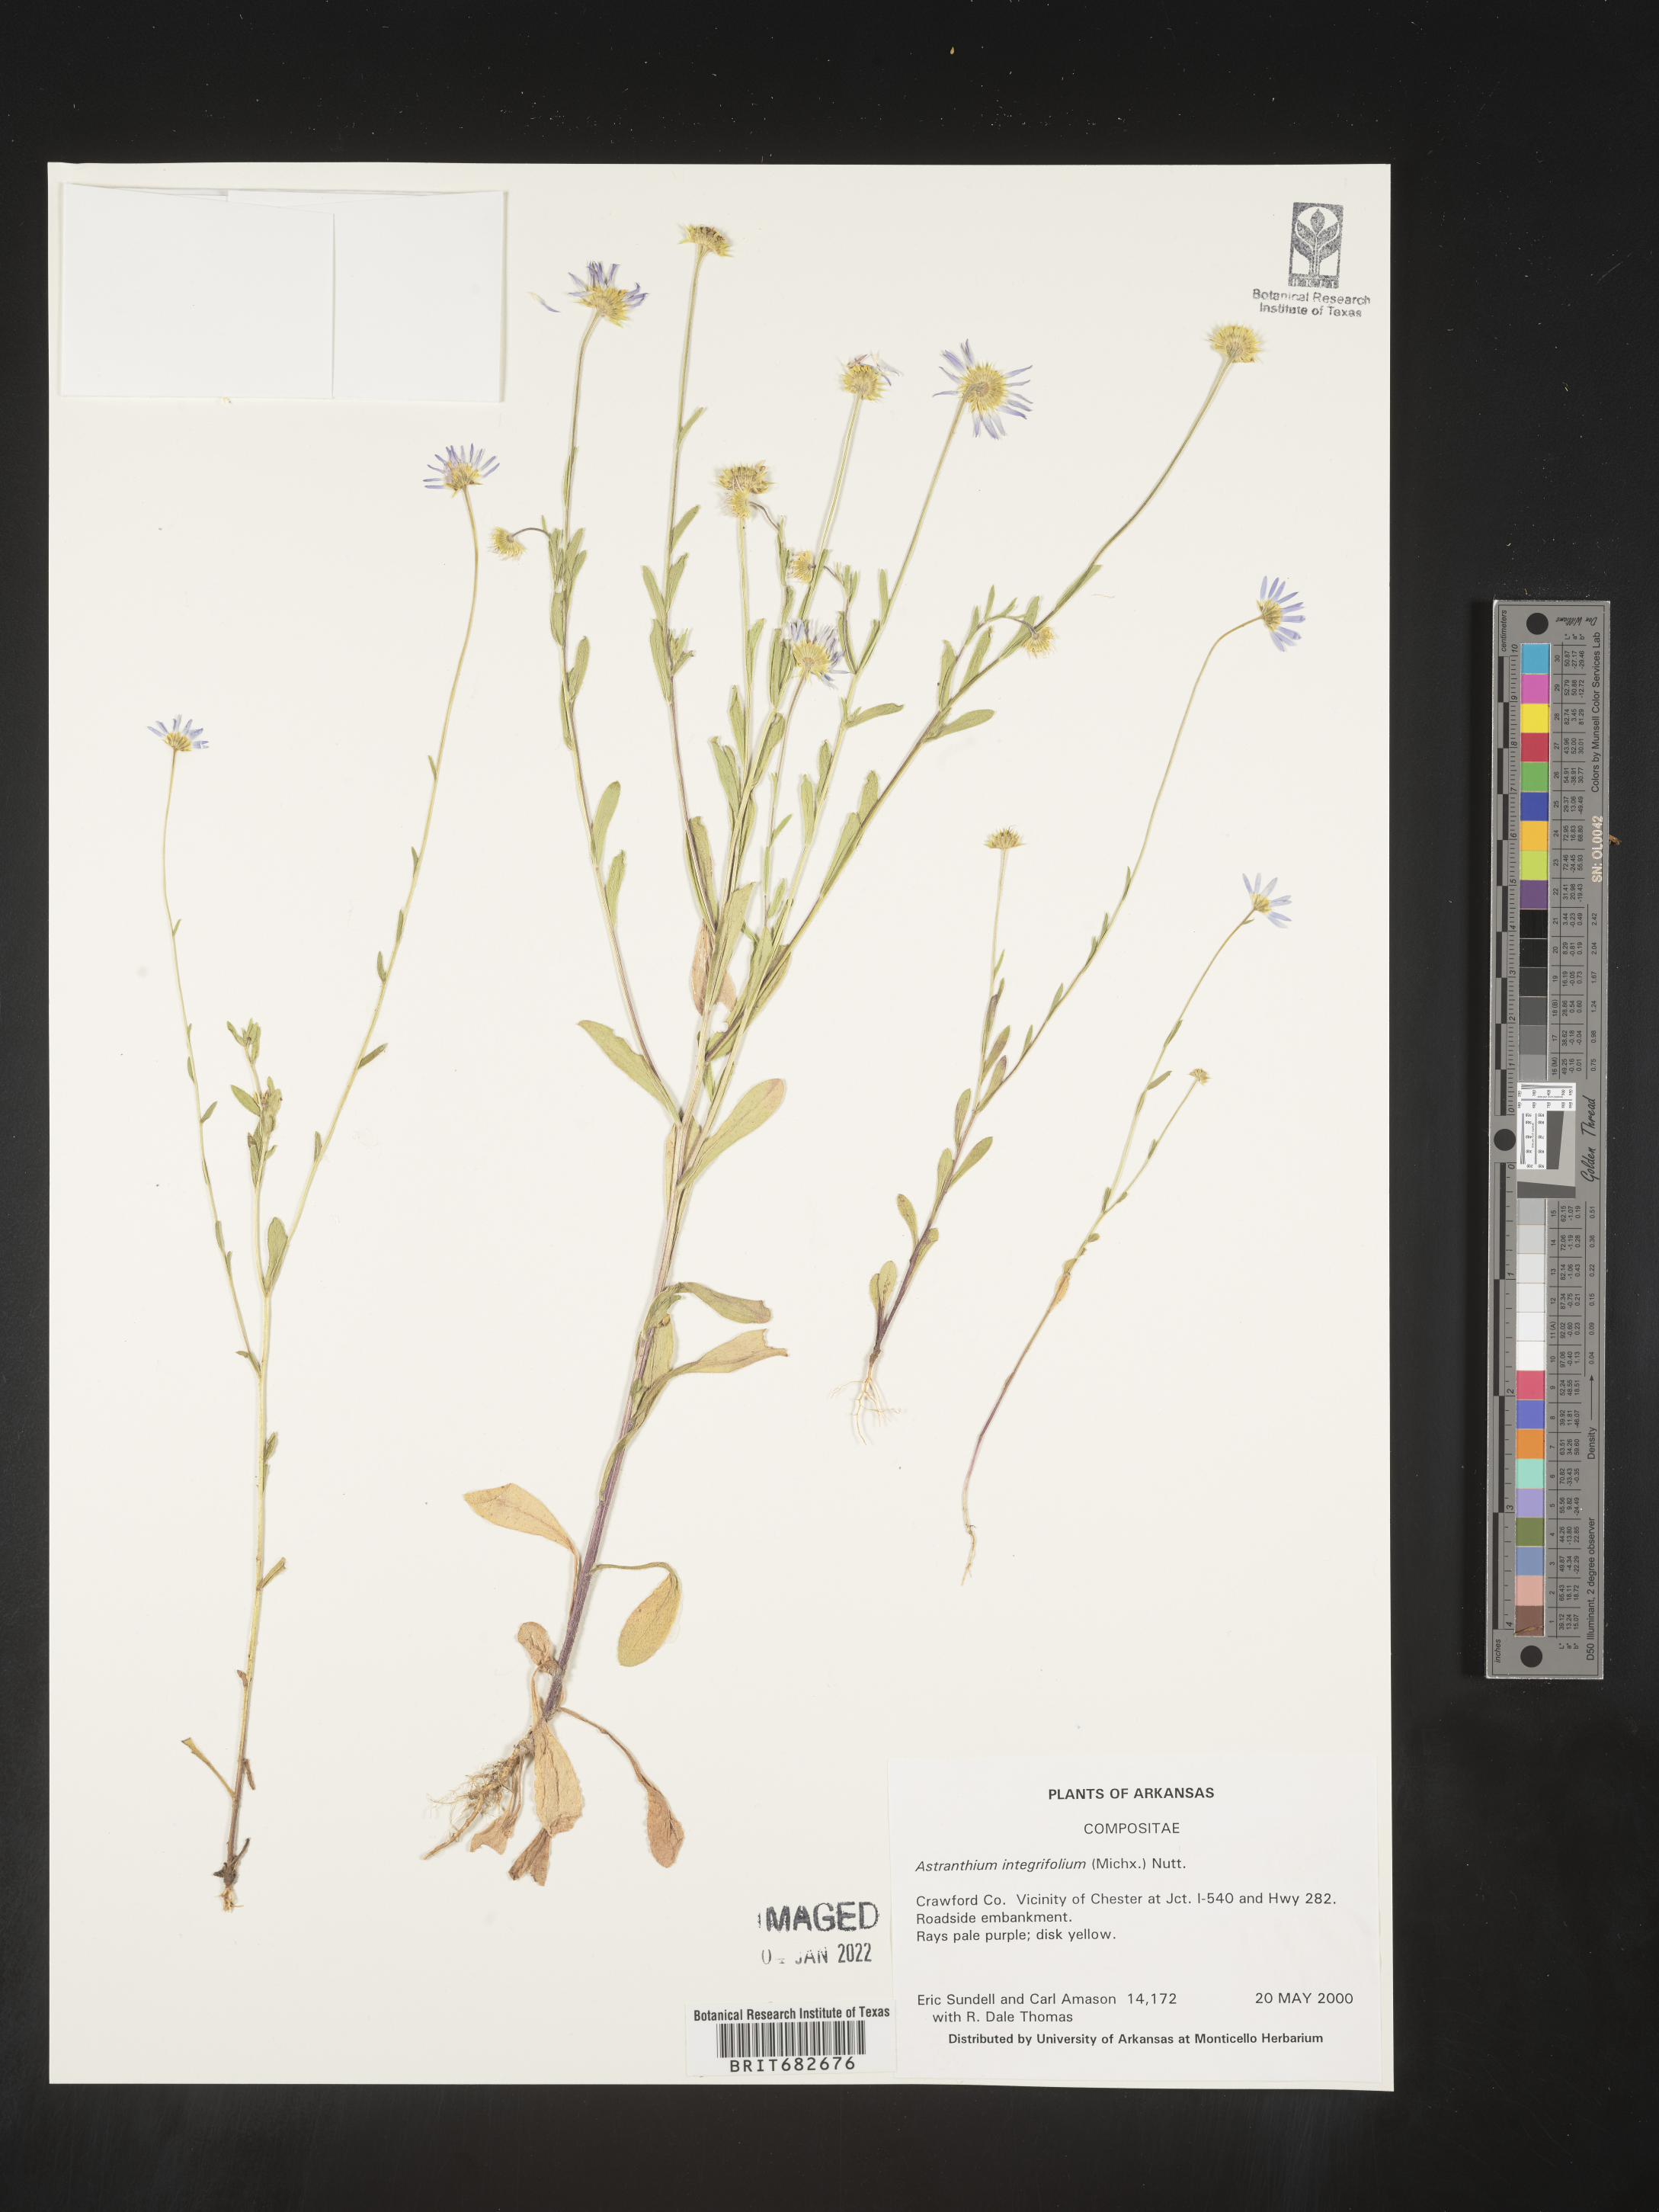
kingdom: Plantae
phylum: Tracheophyta
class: Magnoliopsida
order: Asterales
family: Asteraceae
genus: Astranthium
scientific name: Astranthium ciliatum
